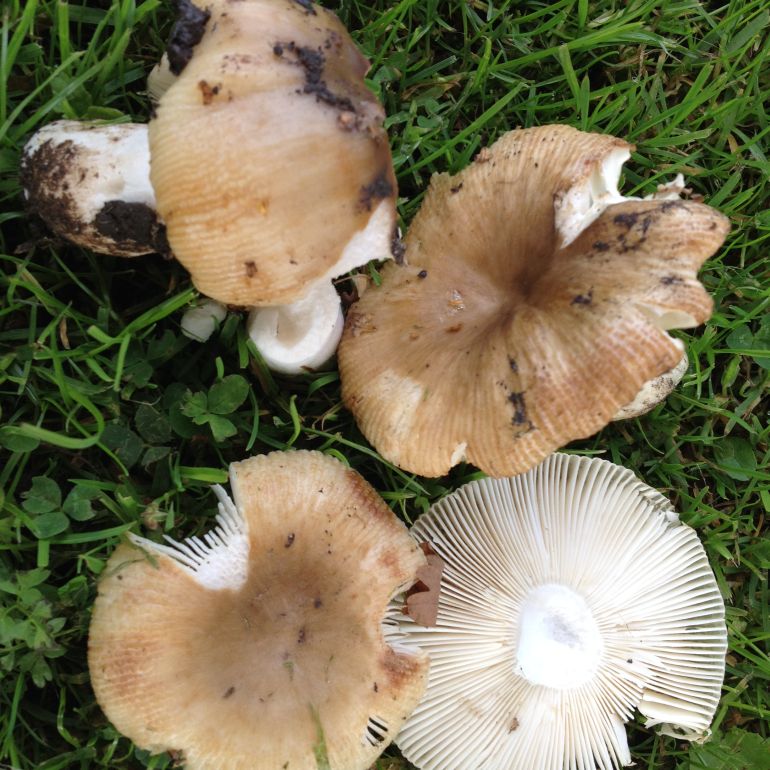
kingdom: Fungi
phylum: Basidiomycota
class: Agaricomycetes
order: Russulales
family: Russulaceae
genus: Russula
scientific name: Russula recondita
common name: mild kam-skørhat
